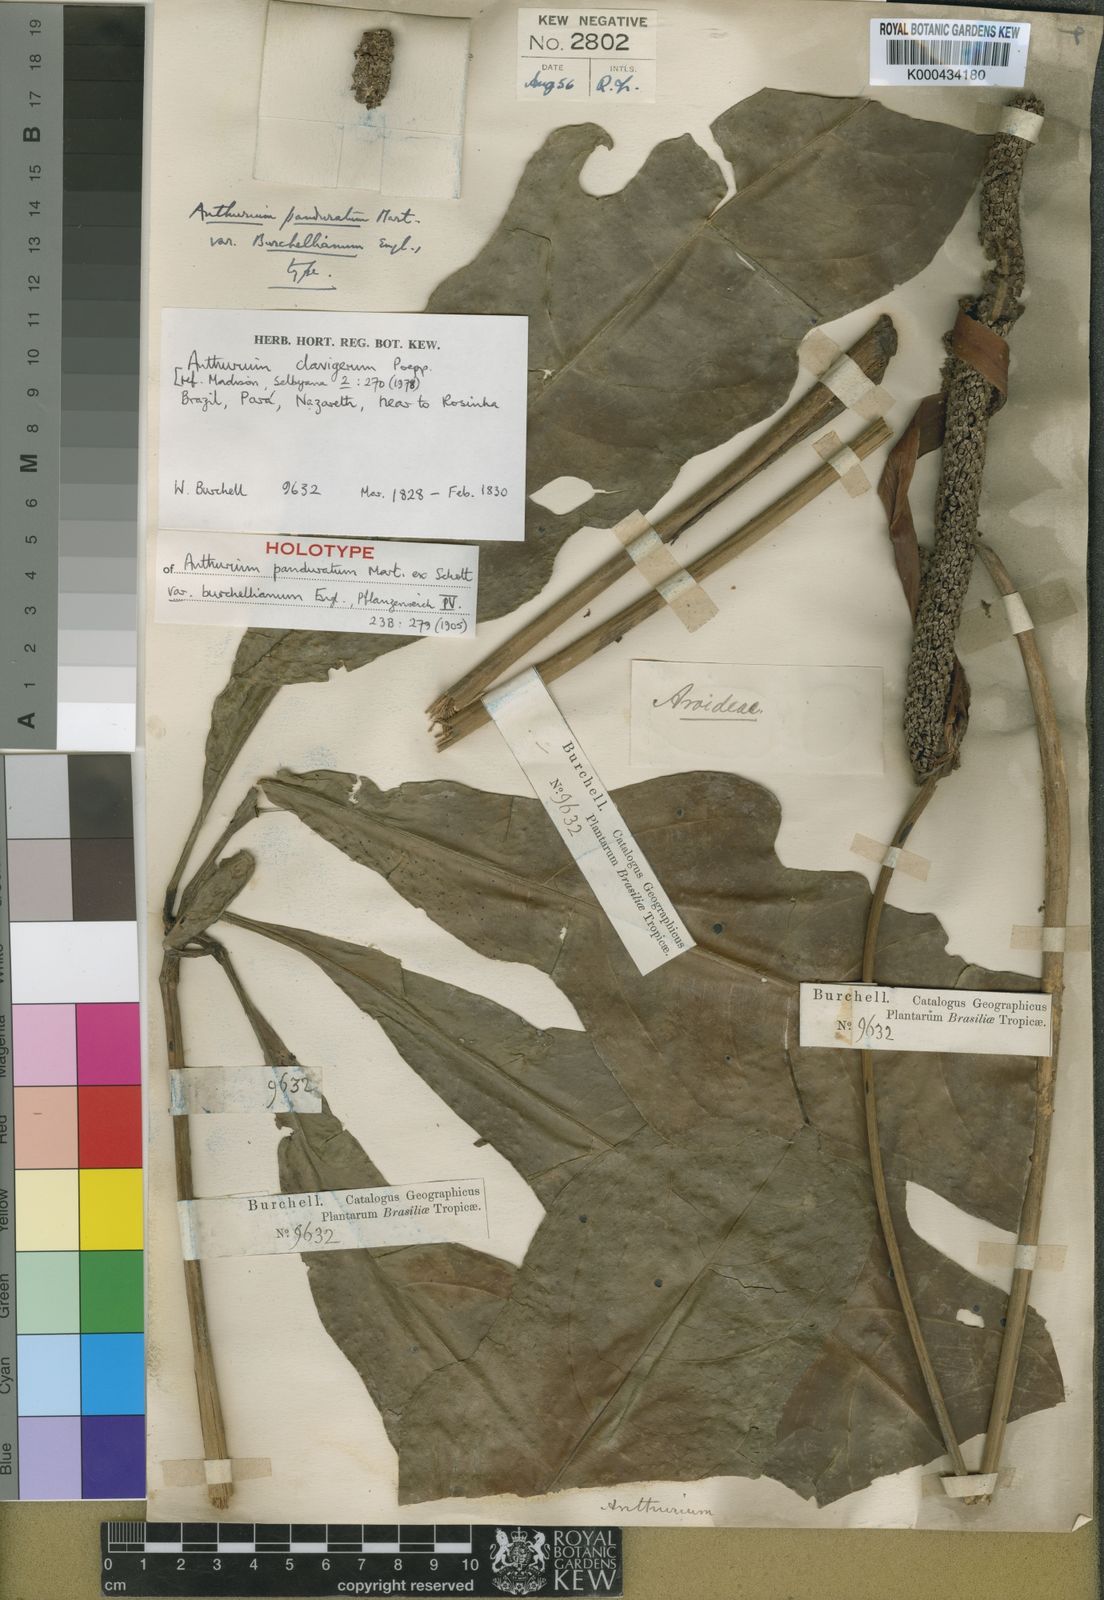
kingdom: Plantae
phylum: Tracheophyta
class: Liliopsida
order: Alismatales
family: Araceae
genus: Anthurium
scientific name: Anthurium clavigerum
